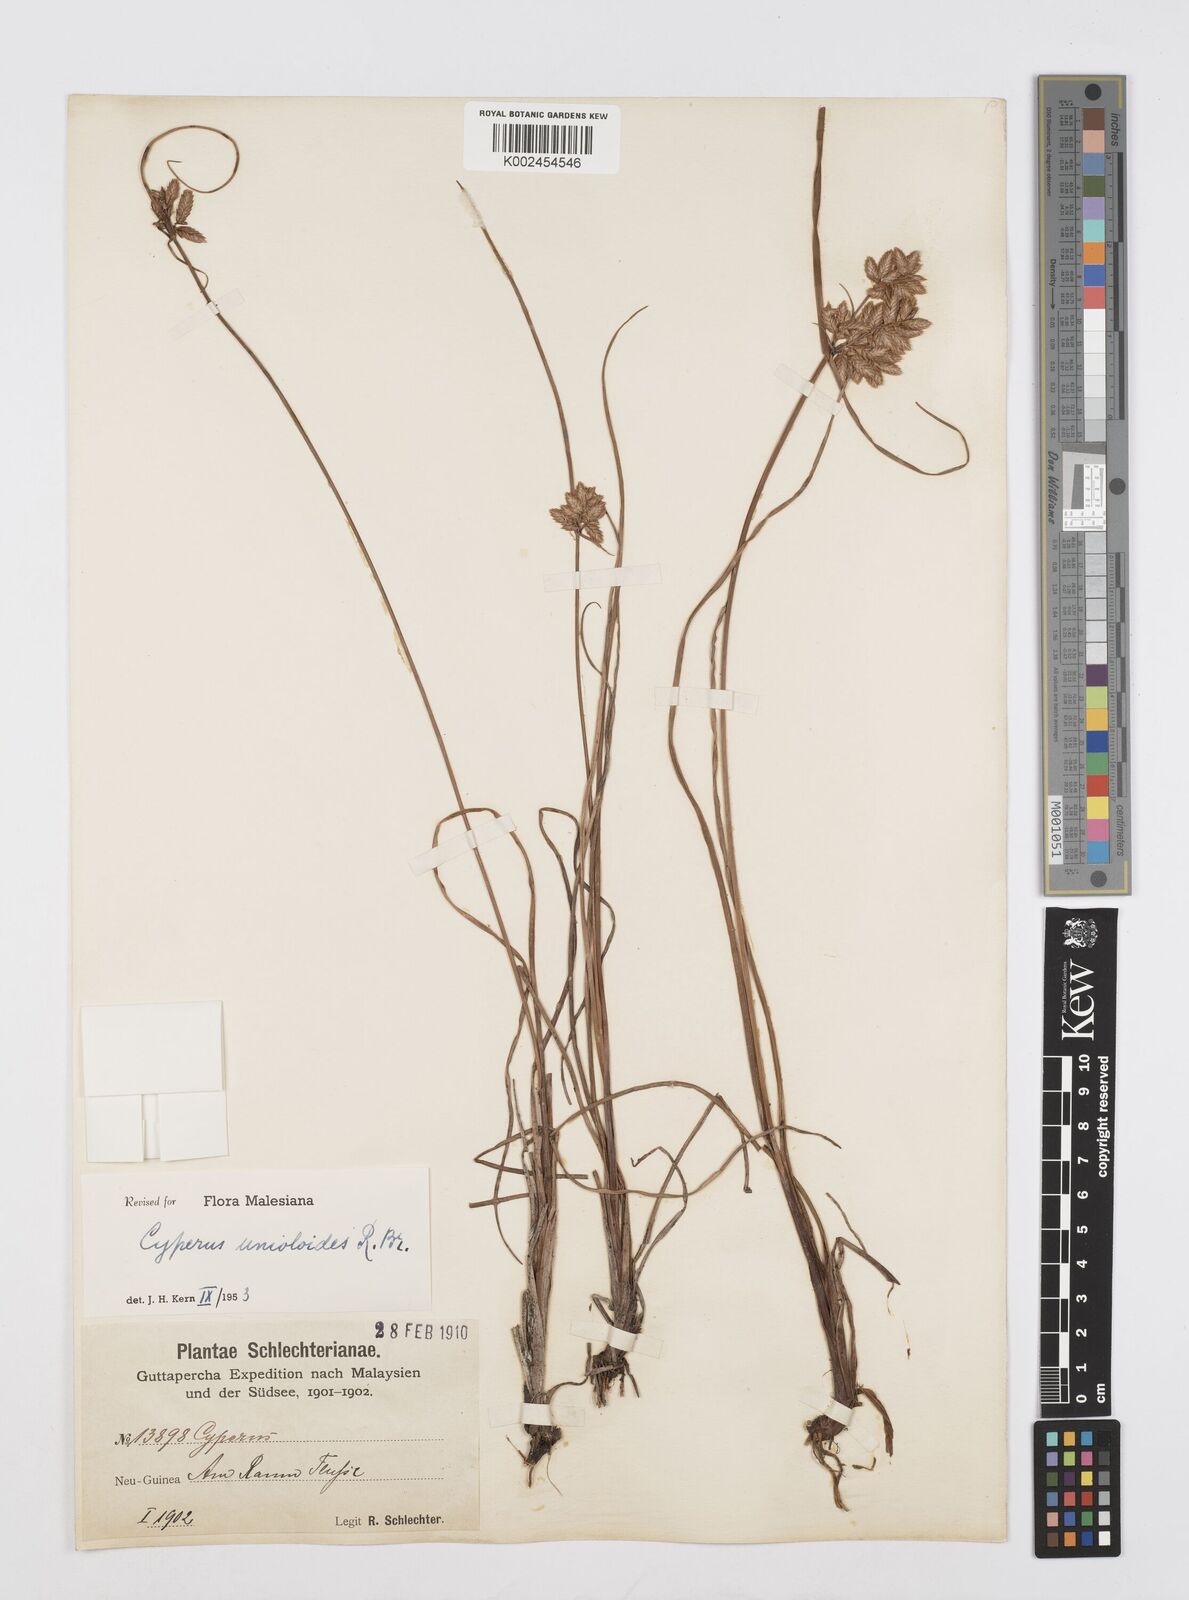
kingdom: Plantae
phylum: Tracheophyta
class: Liliopsida
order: Poales
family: Cyperaceae
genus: Cyperus
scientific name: Cyperus unioloides
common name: Uniola flatsedge
